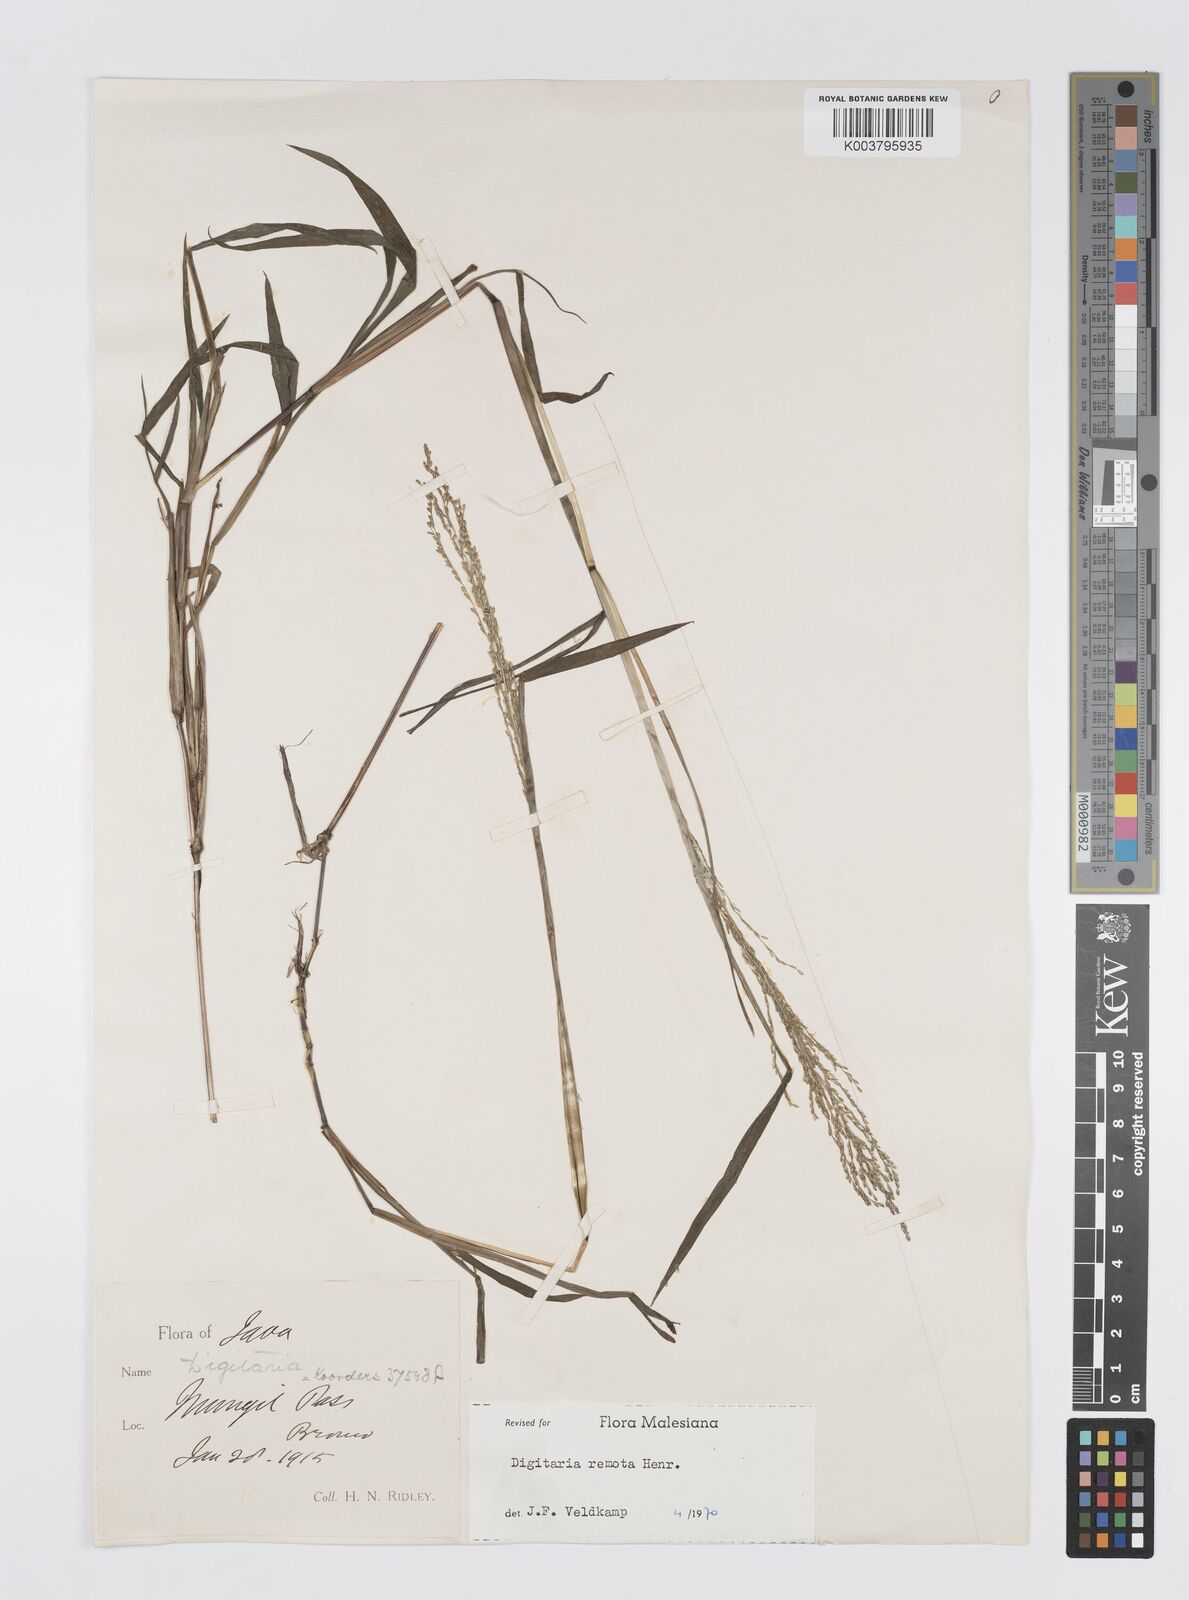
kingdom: Plantae
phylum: Tracheophyta
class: Liliopsida
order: Poales
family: Poaceae
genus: Digitaria
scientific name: Digitaria wallichiana
